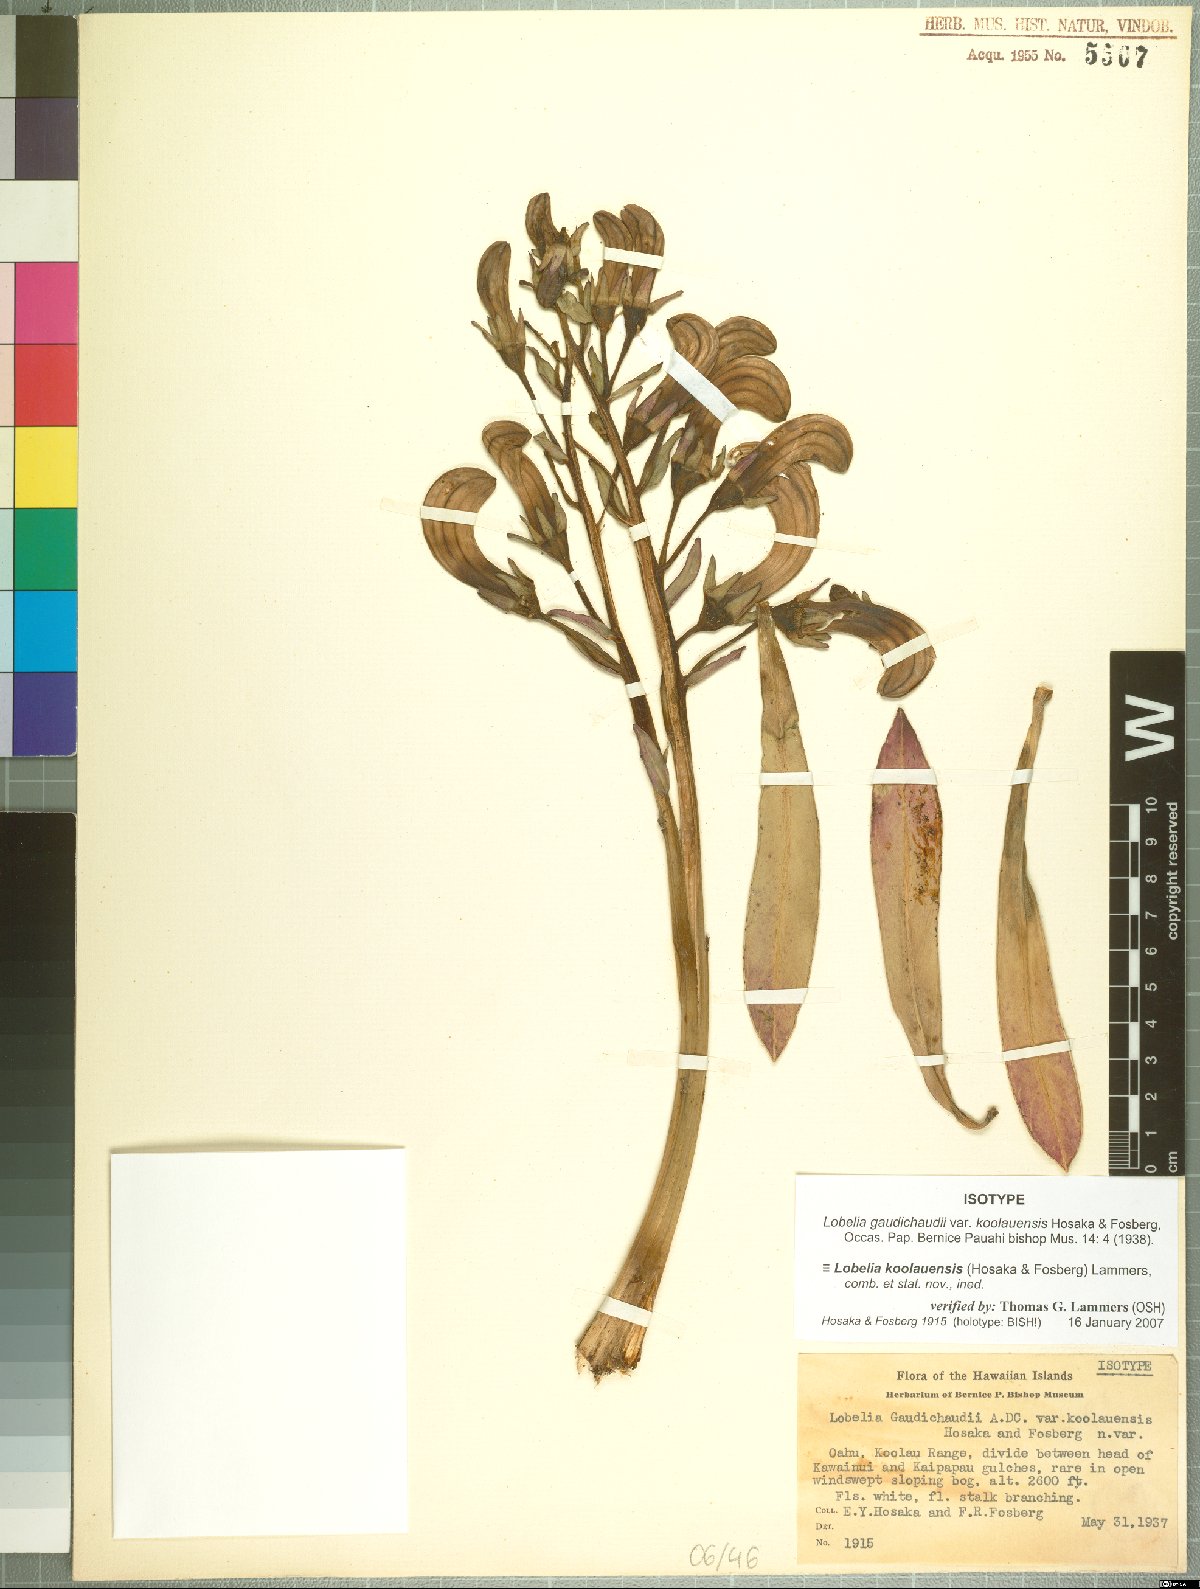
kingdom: Plantae
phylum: Tracheophyta
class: Magnoliopsida
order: Asterales
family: Campanulaceae
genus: Lobelia
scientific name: Lobelia koolauensis
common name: Koolau range lobelia
